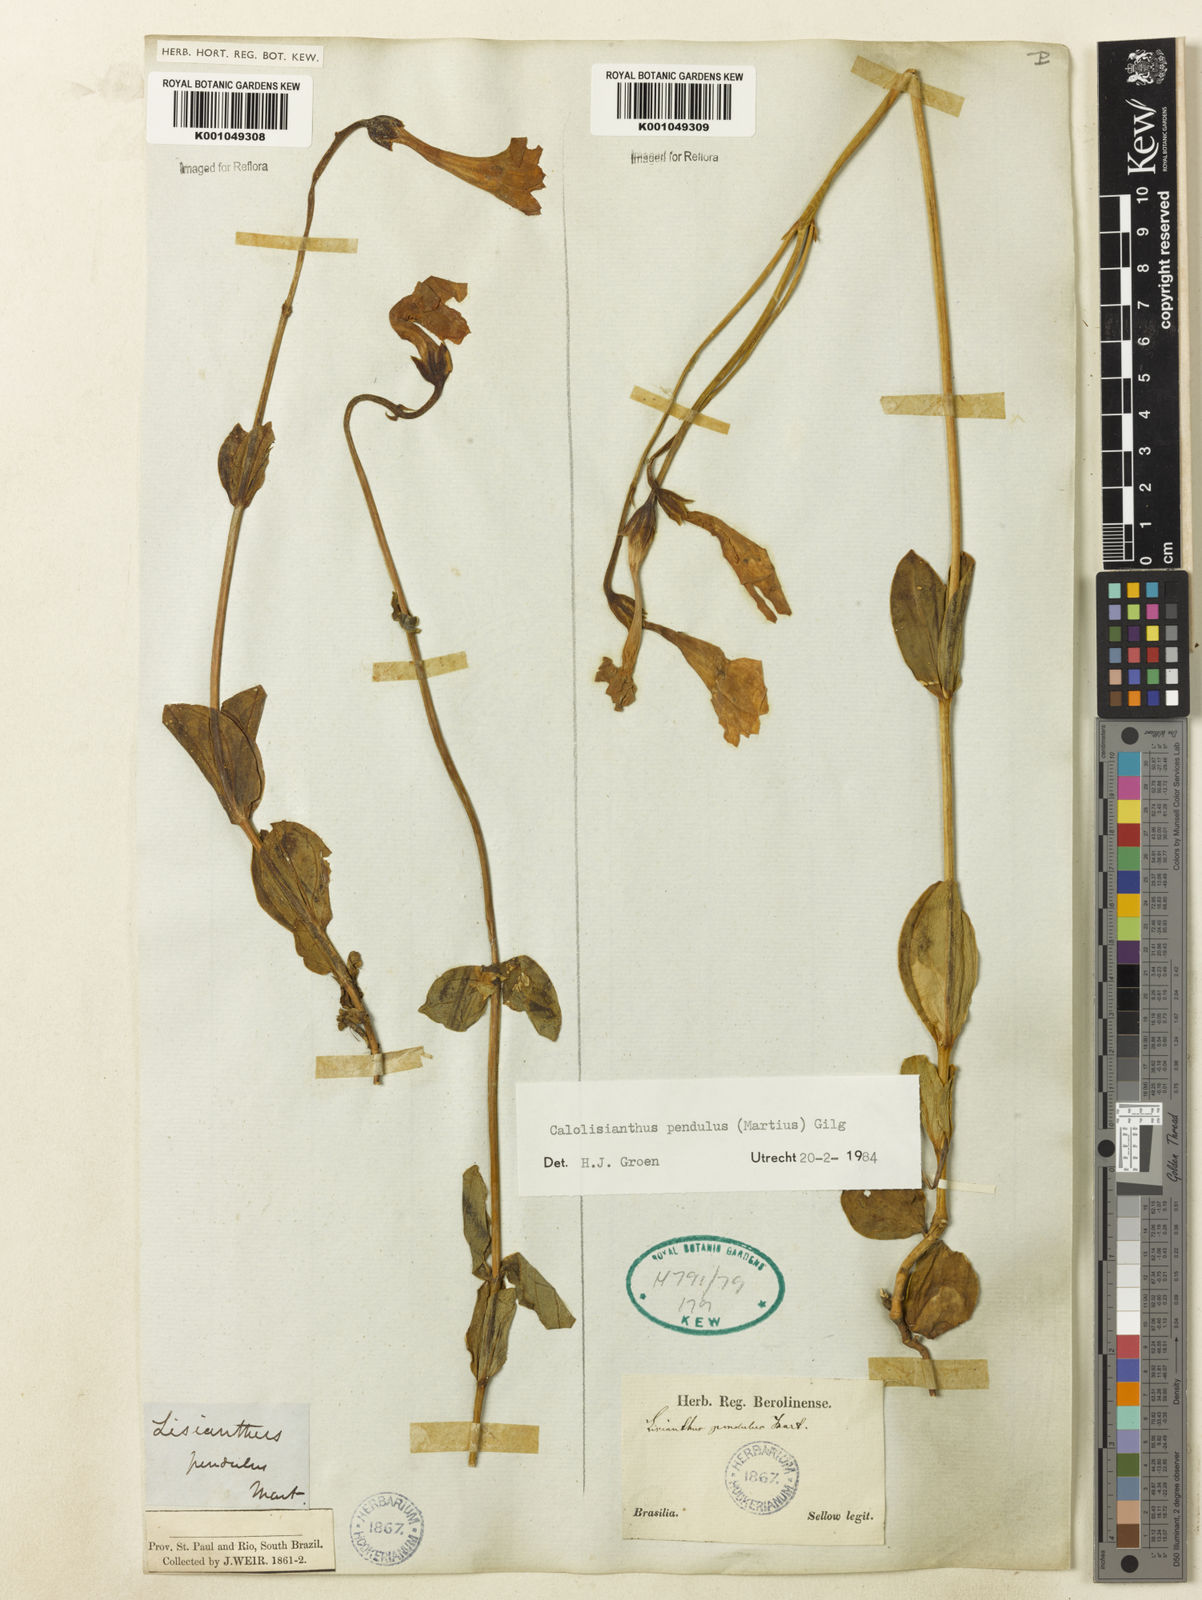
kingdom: Plantae
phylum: Tracheophyta
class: Magnoliopsida
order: Gentianales
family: Gentianaceae
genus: Calolisianthus
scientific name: Calolisianthus pendulus
